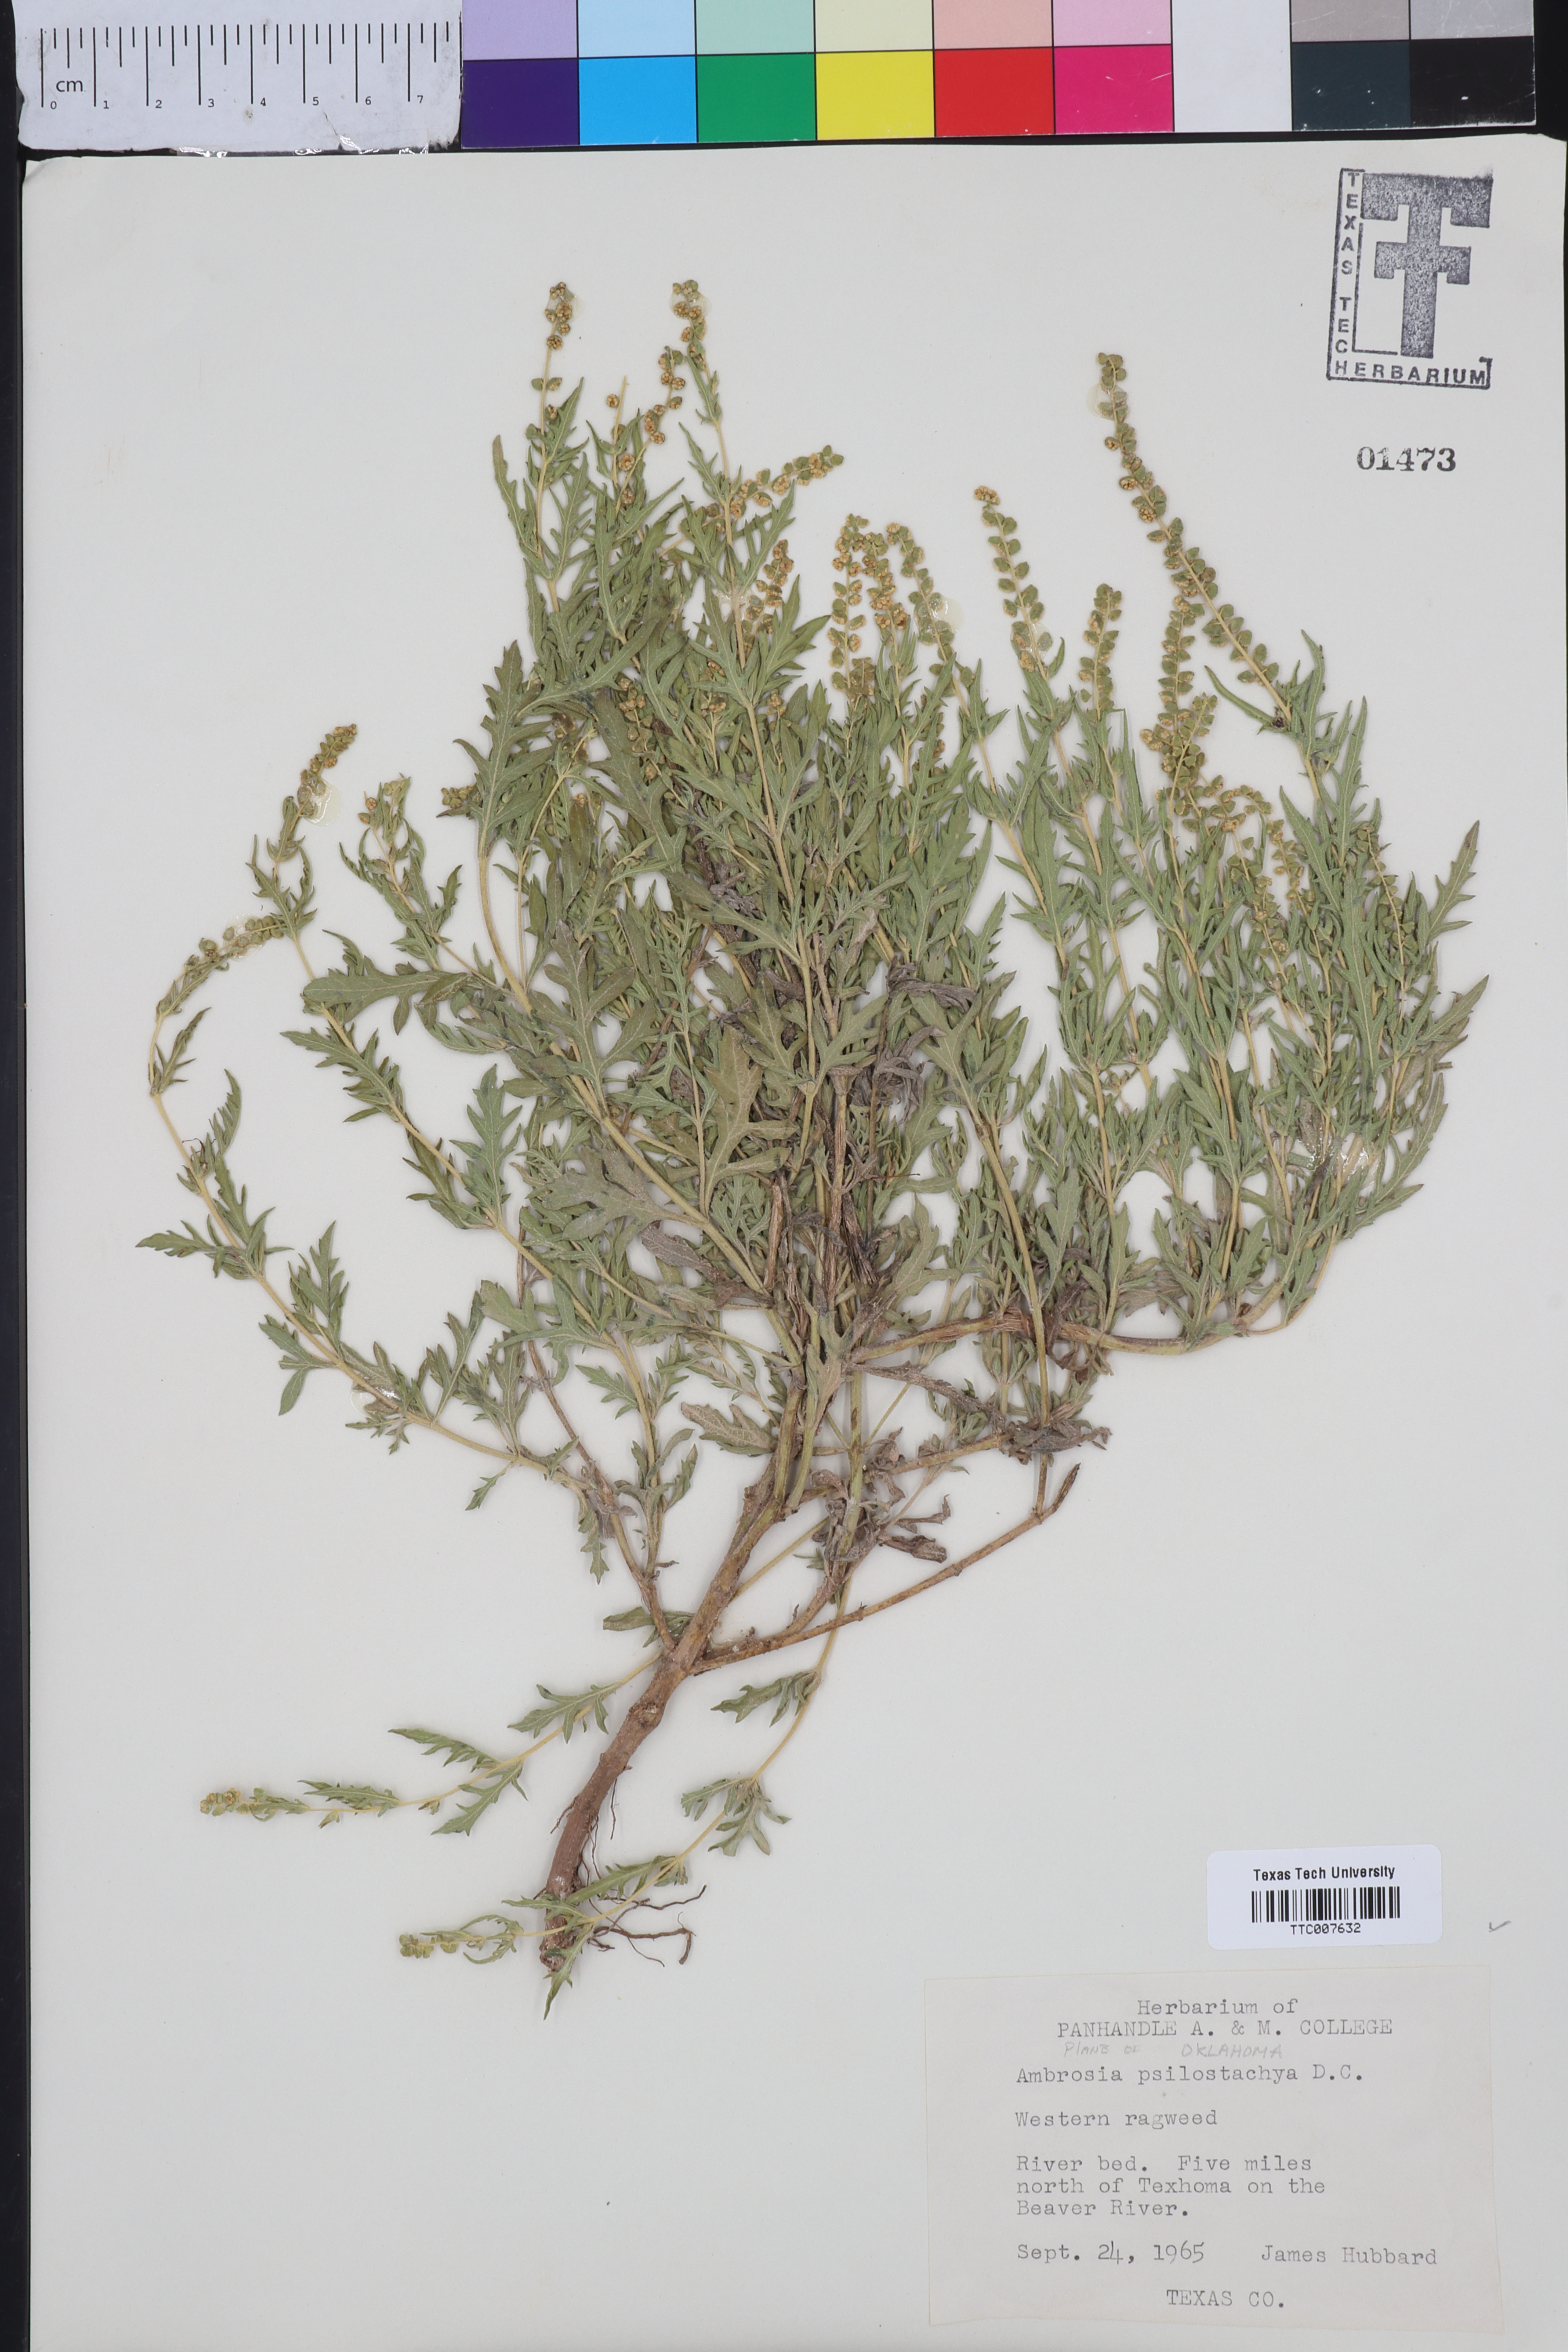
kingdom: Plantae
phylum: Tracheophyta
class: Magnoliopsida
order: Asterales
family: Asteraceae
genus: Ambrosia
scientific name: Ambrosia psilostachya
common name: Perennial ragweed
